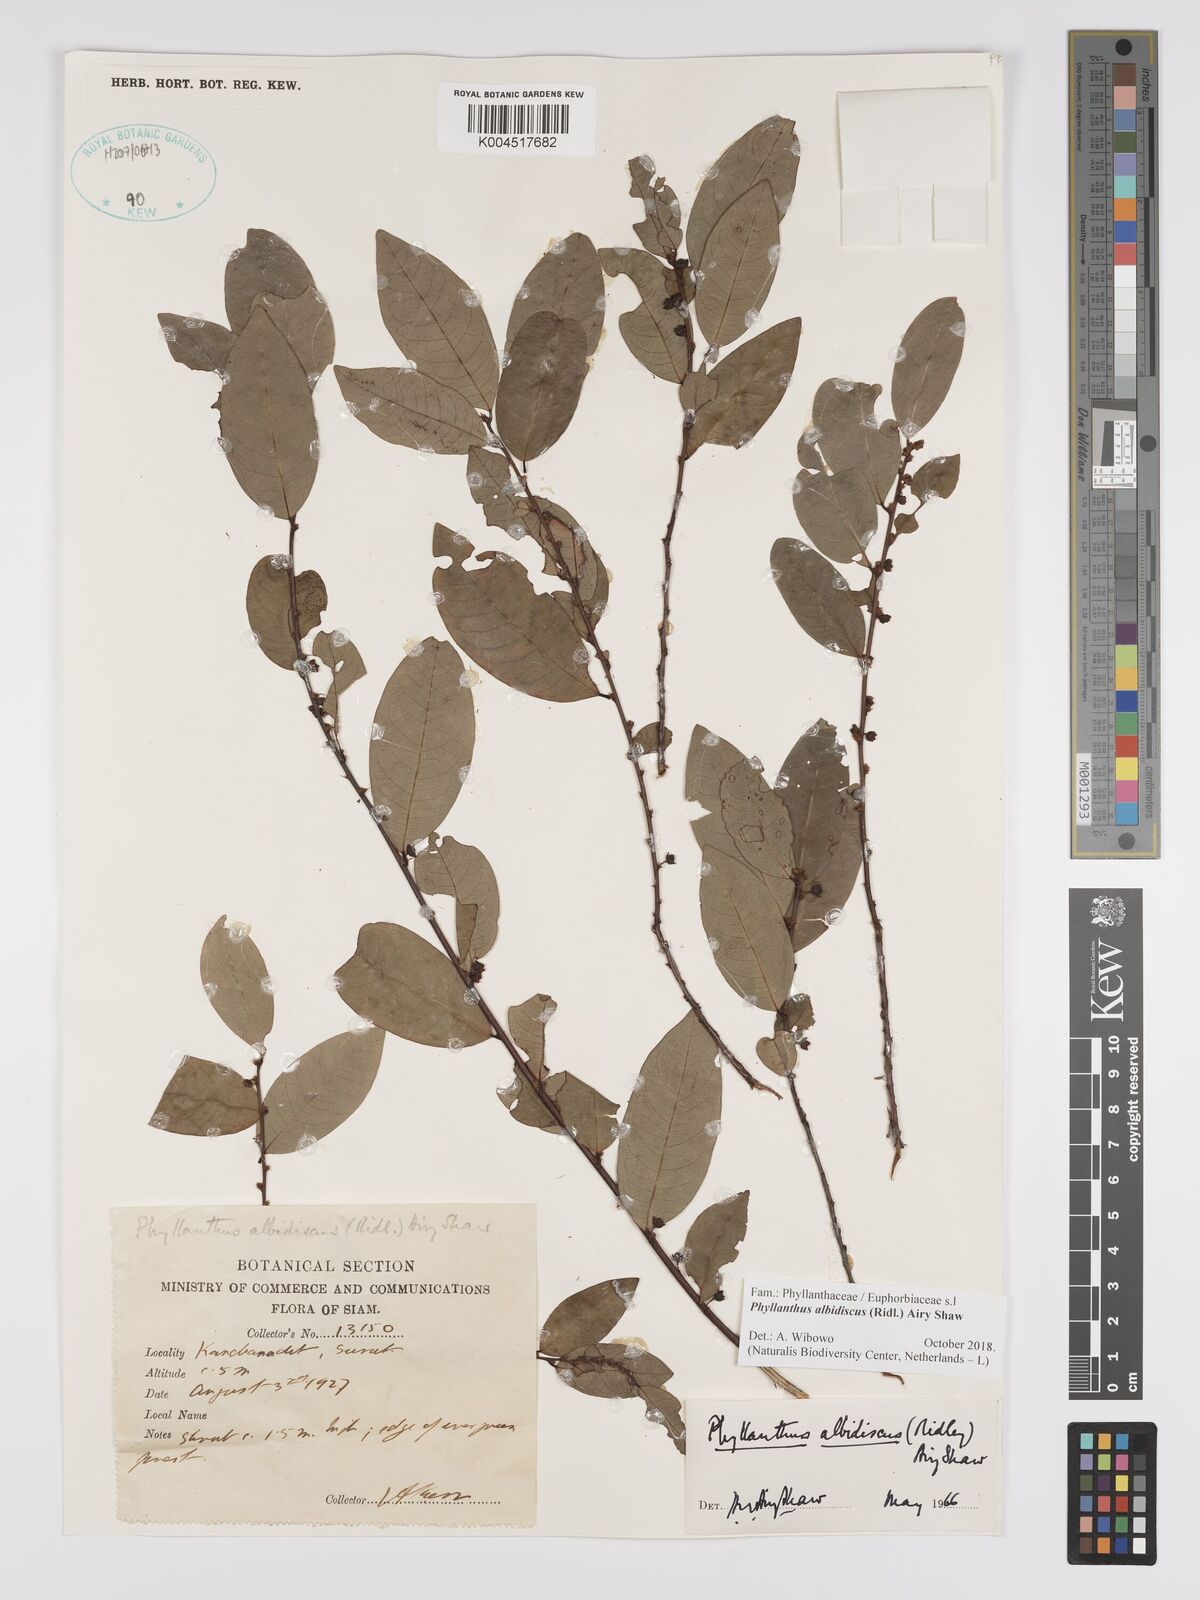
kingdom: Plantae
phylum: Tracheophyta
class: Magnoliopsida
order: Malpighiales
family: Phyllanthaceae
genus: Phyllanthus
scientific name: Phyllanthus albidiscus
